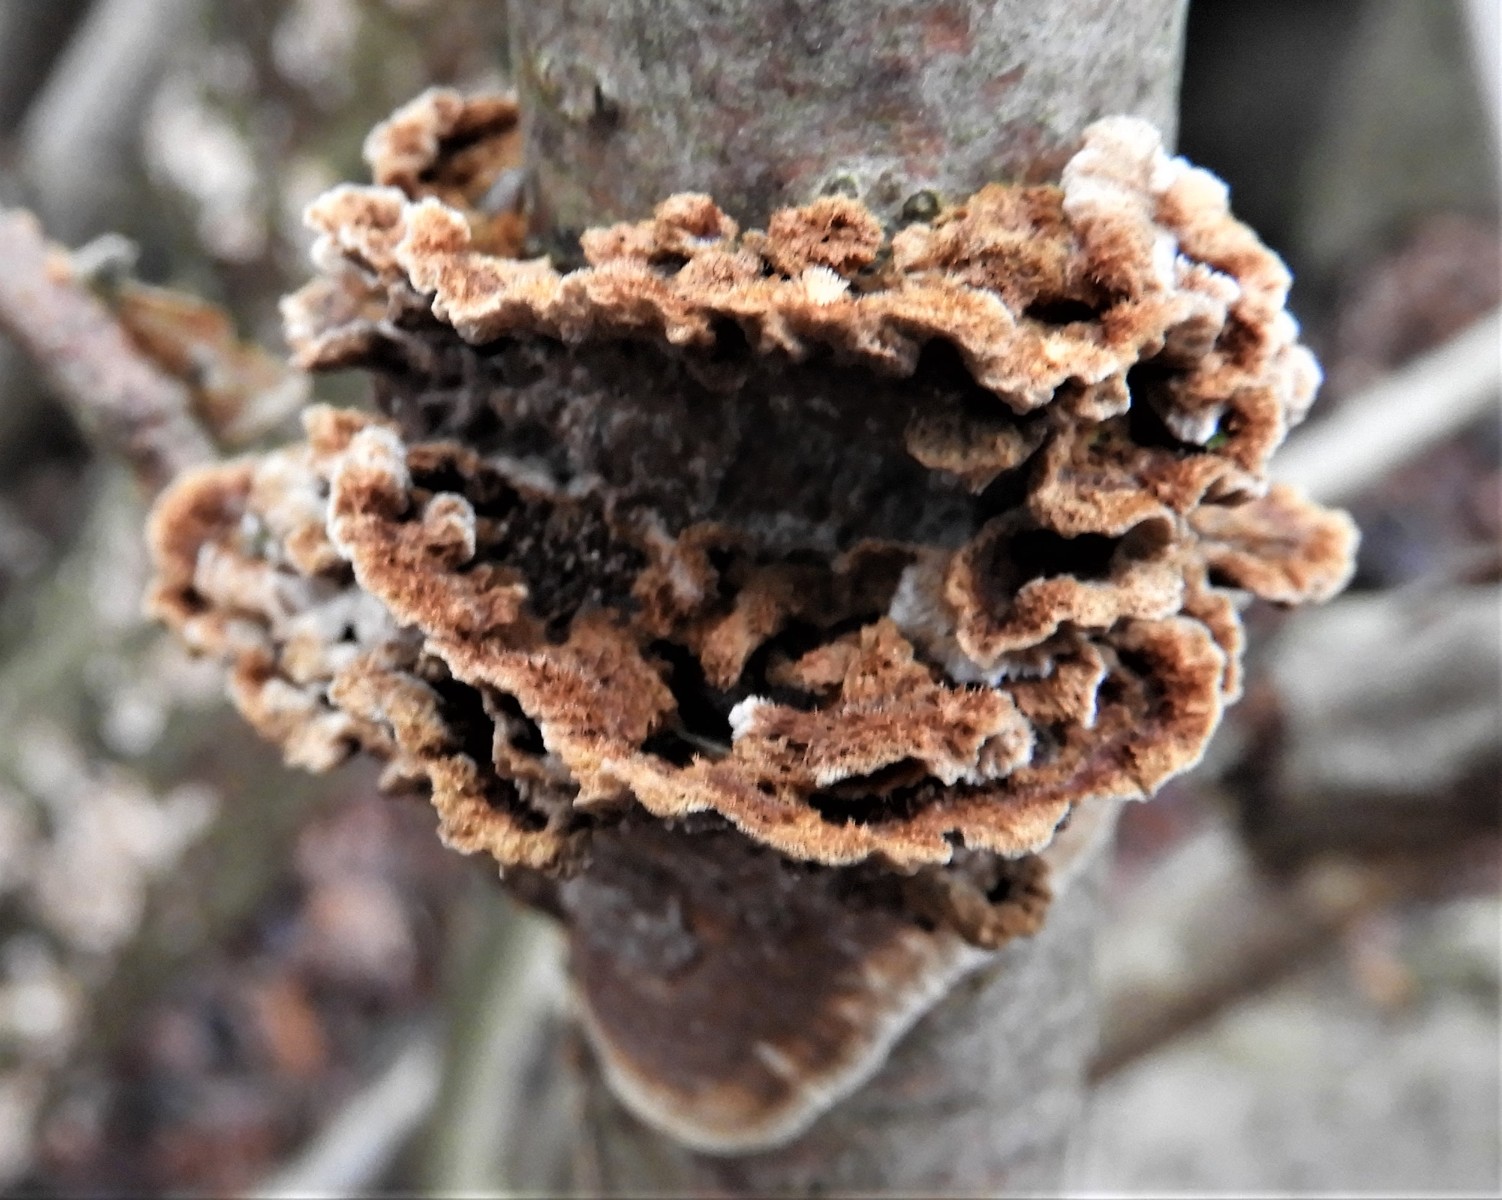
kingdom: Fungi
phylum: Basidiomycota
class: Agaricomycetes
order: Hymenochaetales
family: Hymenochaetaceae
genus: Hydnoporia
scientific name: Hydnoporia tabacina
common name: tobaksbrun ruslædersvamp
